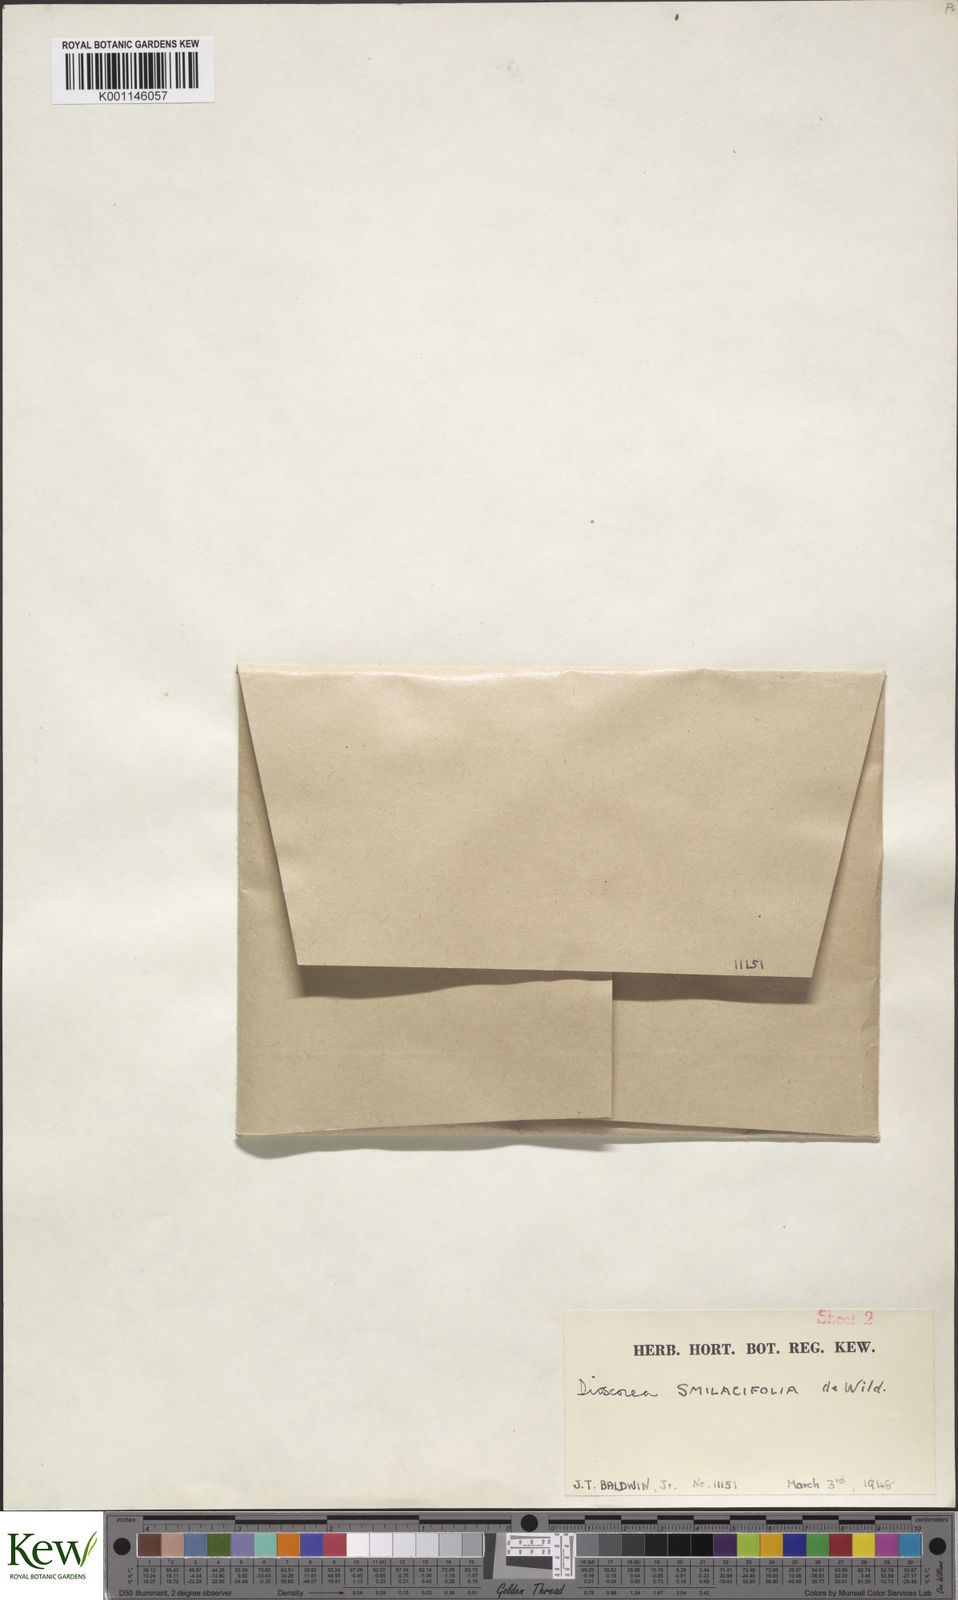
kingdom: Plantae
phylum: Tracheophyta
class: Liliopsida
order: Dioscoreales
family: Dioscoreaceae
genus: Dioscorea
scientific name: Dioscorea smilacifolia
